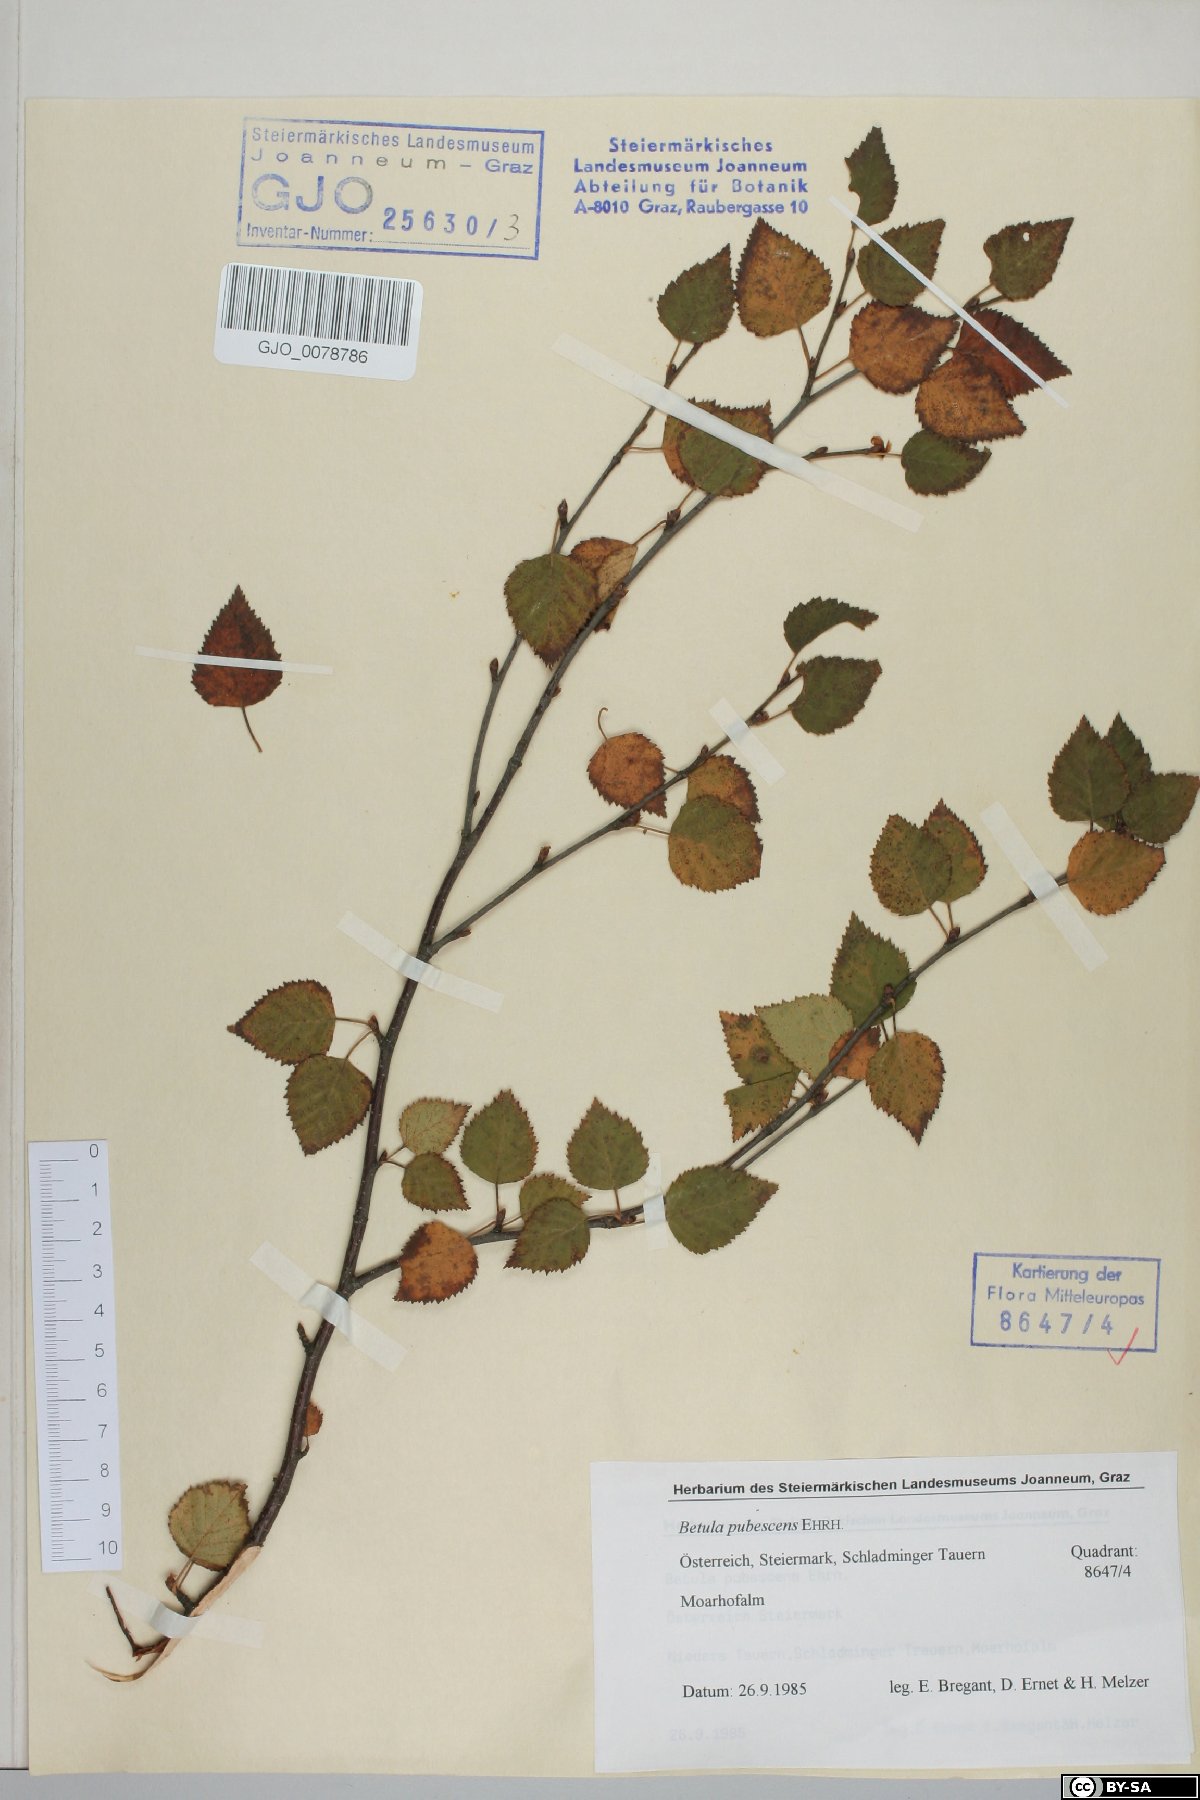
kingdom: Plantae
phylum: Tracheophyta
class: Magnoliopsida
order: Fagales
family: Betulaceae
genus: Betula
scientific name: Betula pubescens
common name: Downy birch
